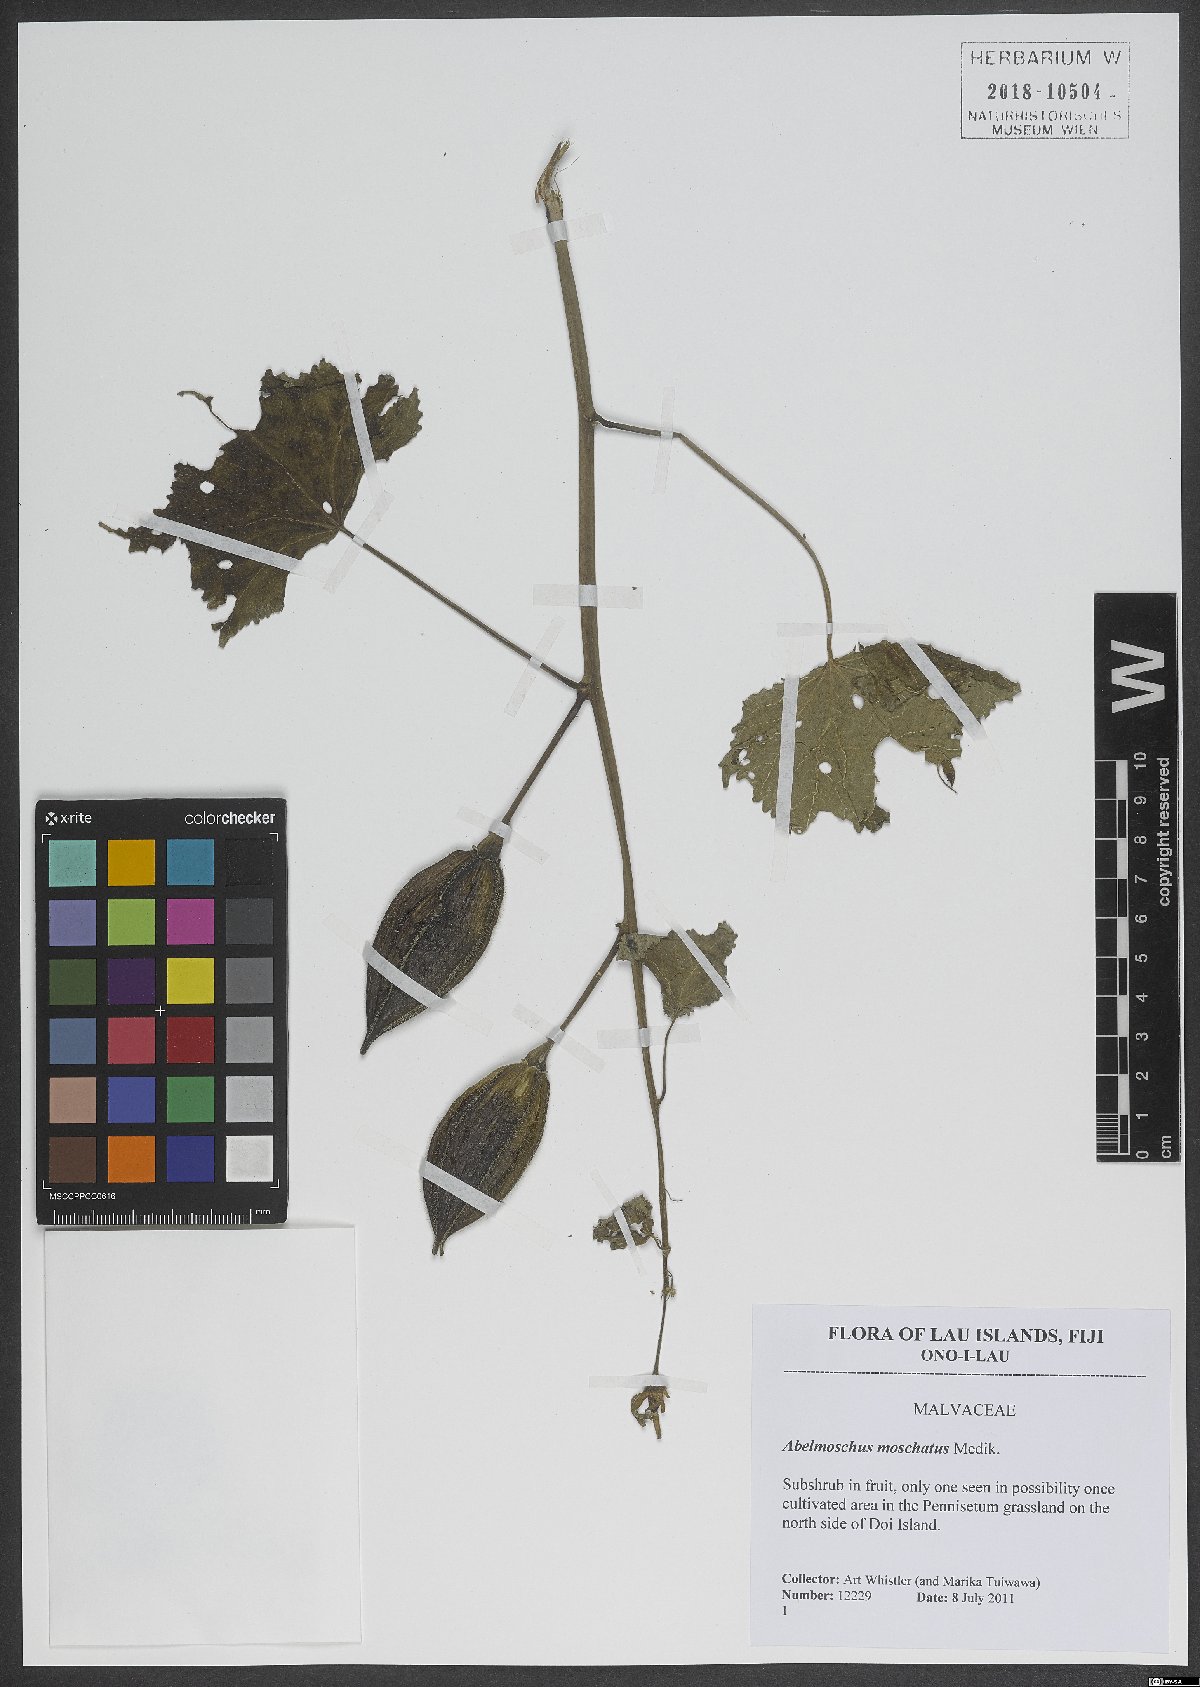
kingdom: Plantae
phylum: Tracheophyta
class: Magnoliopsida
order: Malvales
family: Malvaceae
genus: Abelmoschus
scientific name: Abelmoschus moschatus
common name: Musk okra
